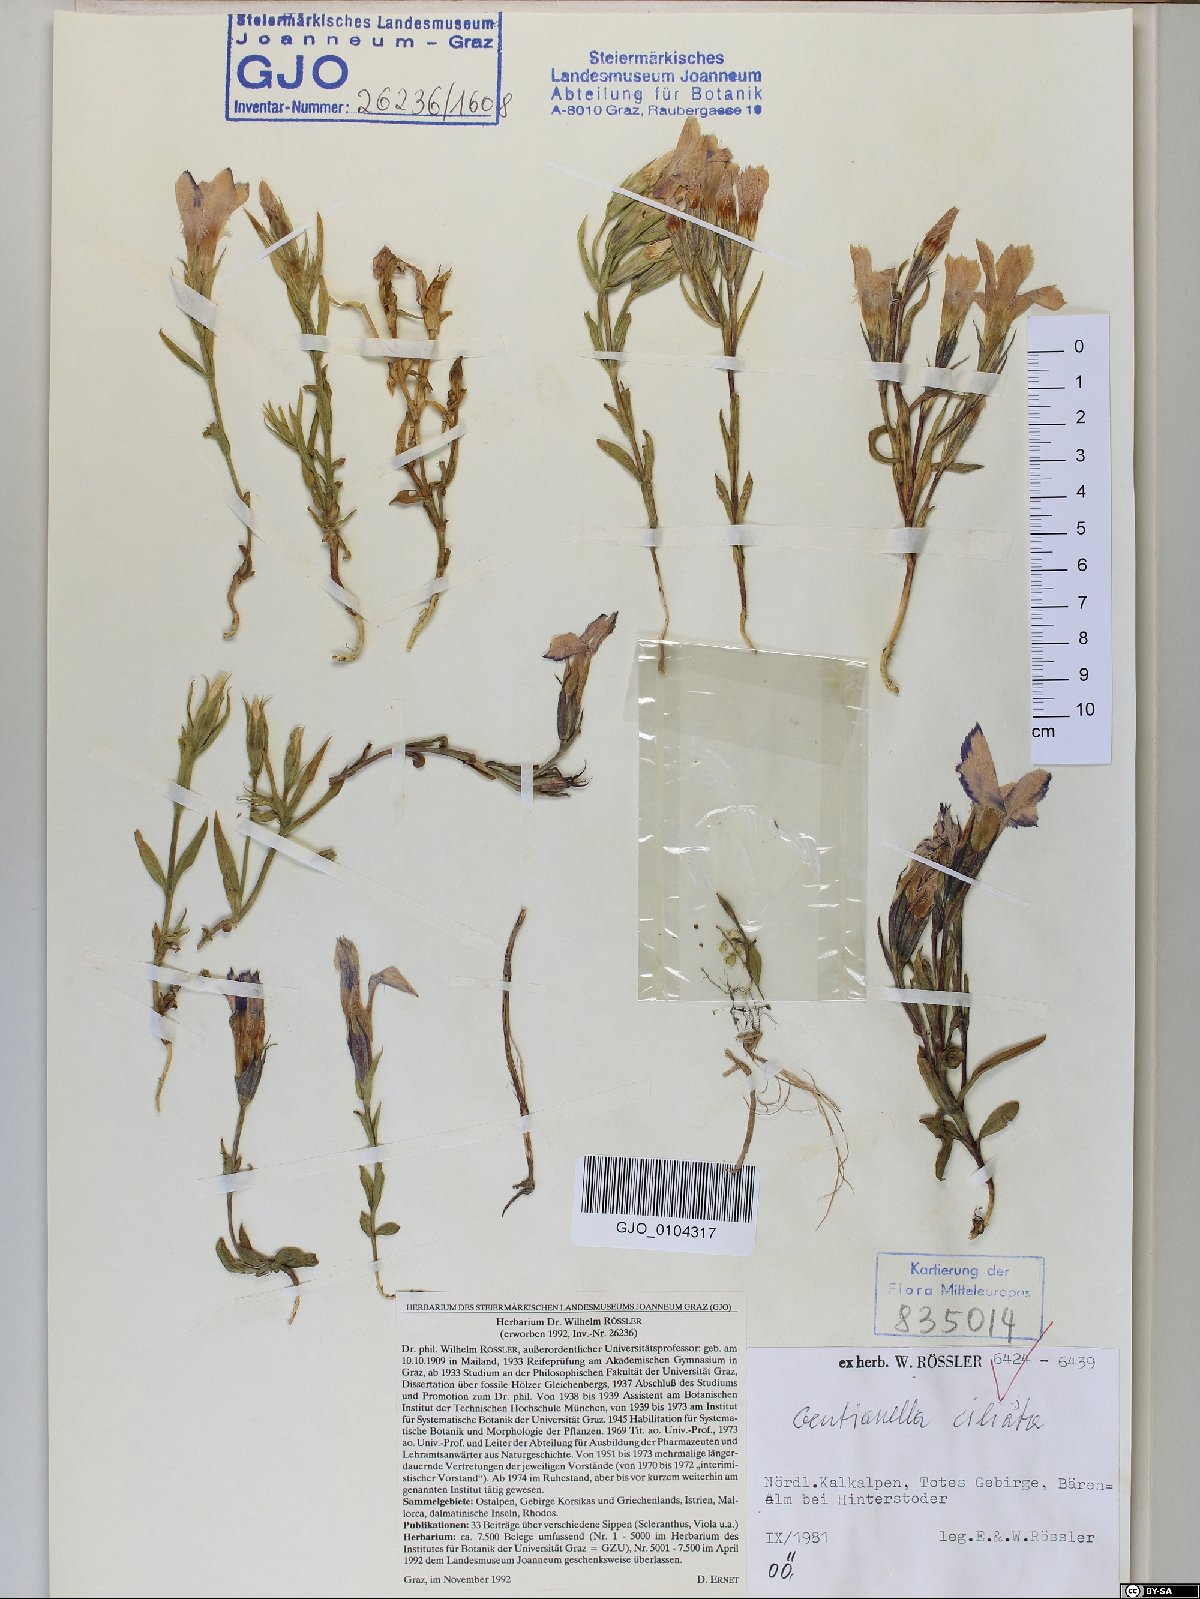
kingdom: Plantae
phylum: Tracheophyta
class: Magnoliopsida
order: Gentianales
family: Gentianaceae
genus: Gentianopsis
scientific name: Gentianopsis ciliata
